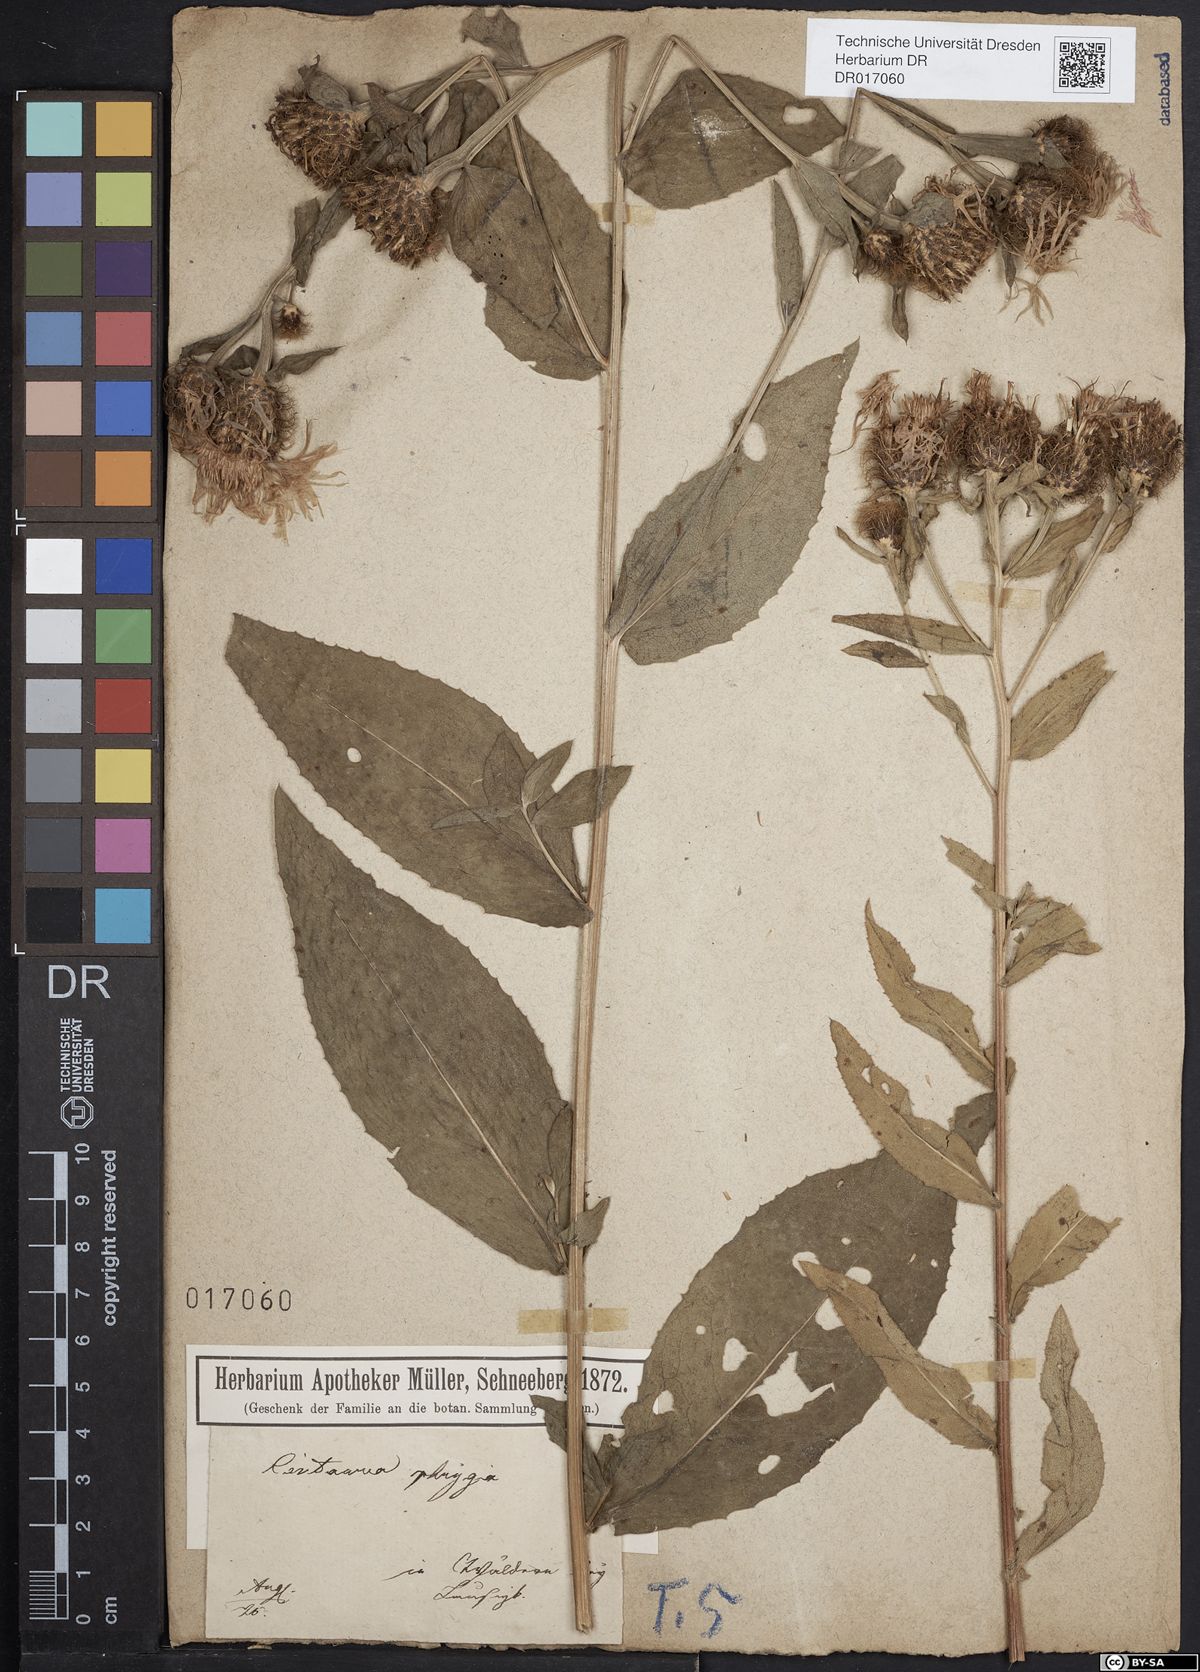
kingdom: Plantae
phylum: Tracheophyta
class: Magnoliopsida
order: Asterales
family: Asteraceae
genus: Centaurea
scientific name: Centaurea pseudophrygia
